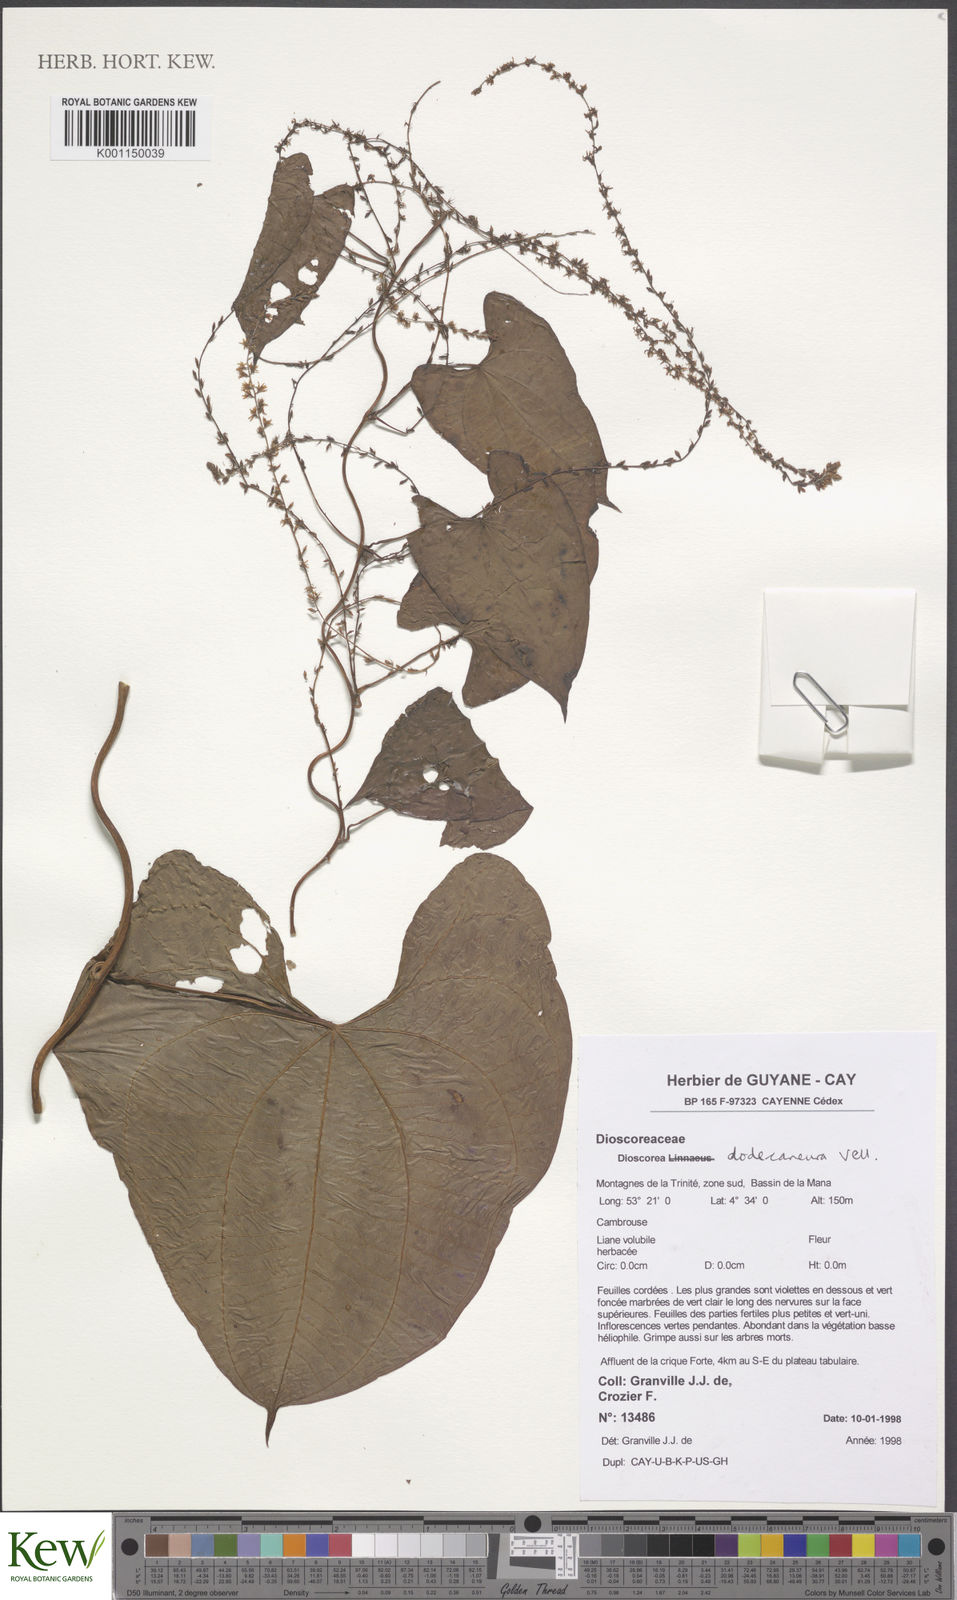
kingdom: Plantae
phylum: Tracheophyta
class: Liliopsida
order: Dioscoreales
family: Dioscoreaceae
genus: Dioscorea
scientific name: Dioscorea dodecaneura
